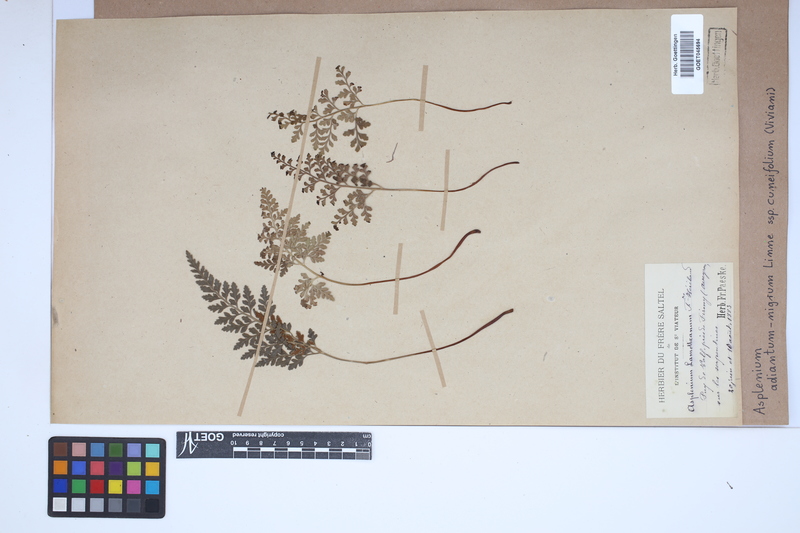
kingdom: Plantae
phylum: Tracheophyta
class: Polypodiopsida
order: Polypodiales
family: Aspleniaceae
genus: Asplenium
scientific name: Asplenium cuneifolium
